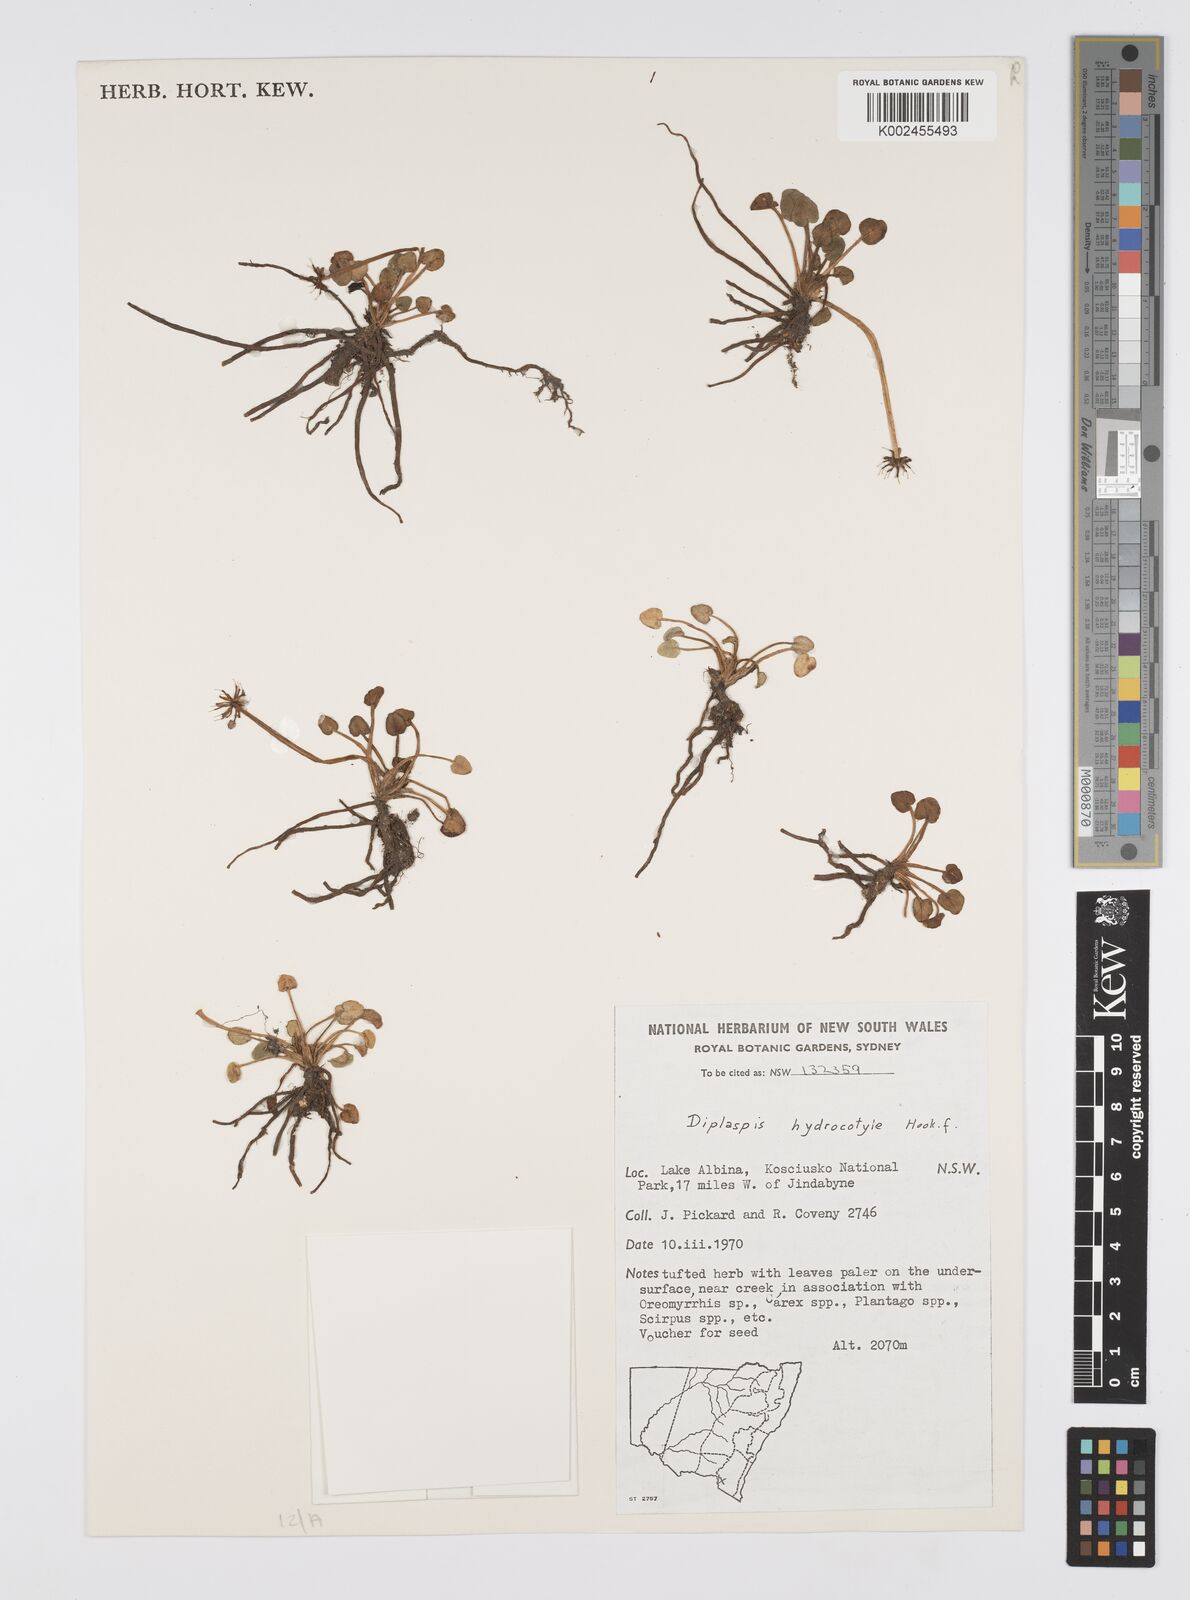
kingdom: Plantae
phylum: Tracheophyta
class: Magnoliopsida
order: Apiales
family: Apiaceae
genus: Diplaspis
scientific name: Diplaspis hydrocotylea
